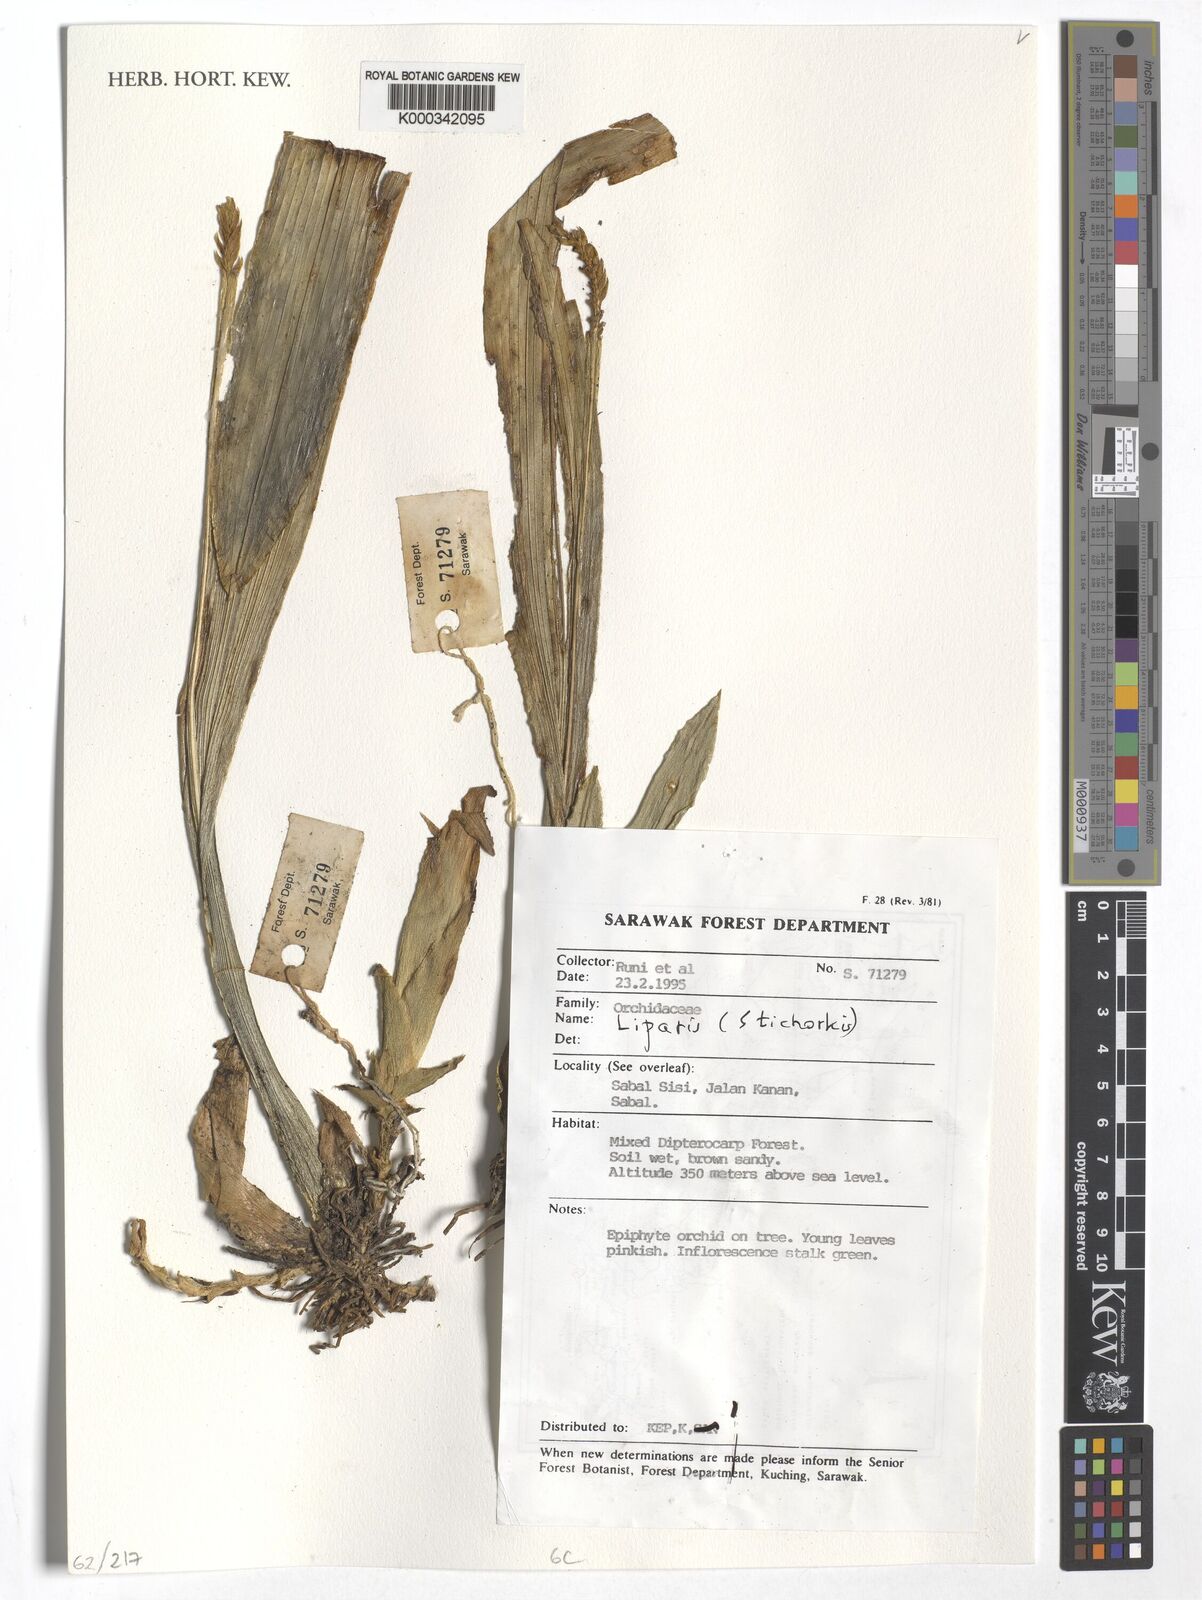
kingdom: Plantae
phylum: Tracheophyta
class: Liliopsida
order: Asparagales
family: Orchidaceae
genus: Liparis
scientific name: Liparis
